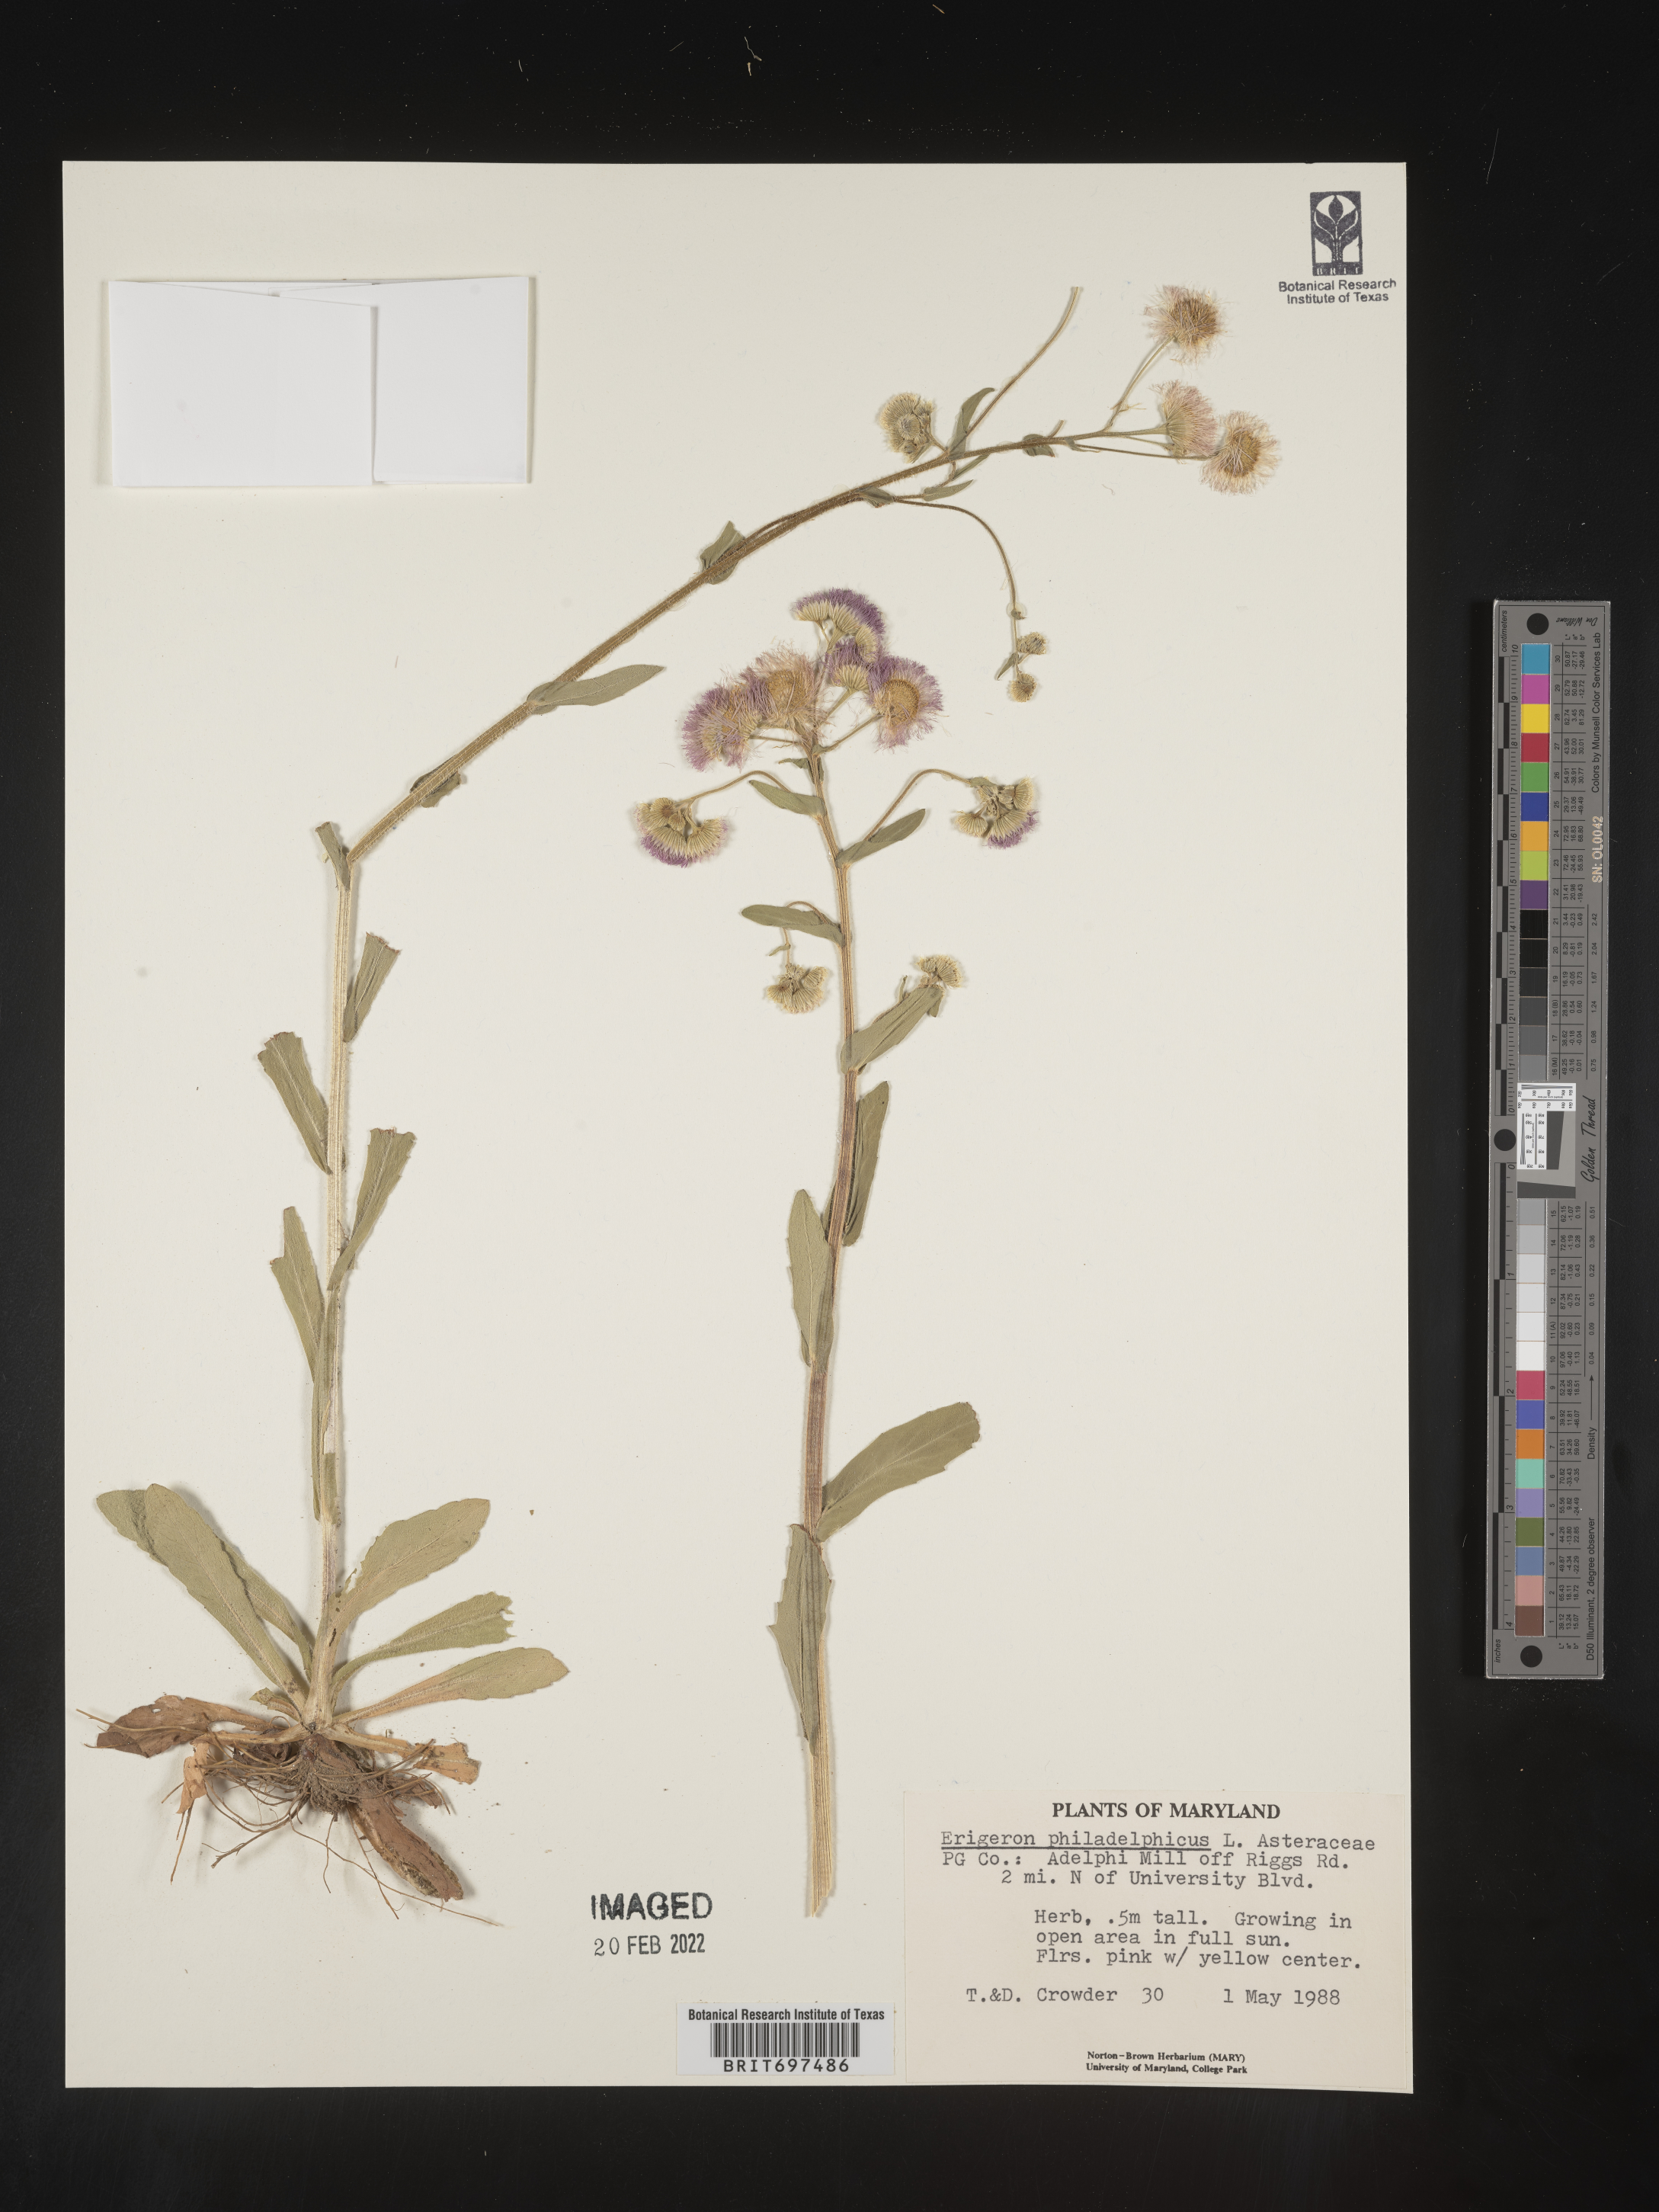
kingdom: Plantae
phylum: Tracheophyta
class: Magnoliopsida
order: Asterales
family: Asteraceae
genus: Erigeron
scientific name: Erigeron philadelphicus
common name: Robin's-plantain
